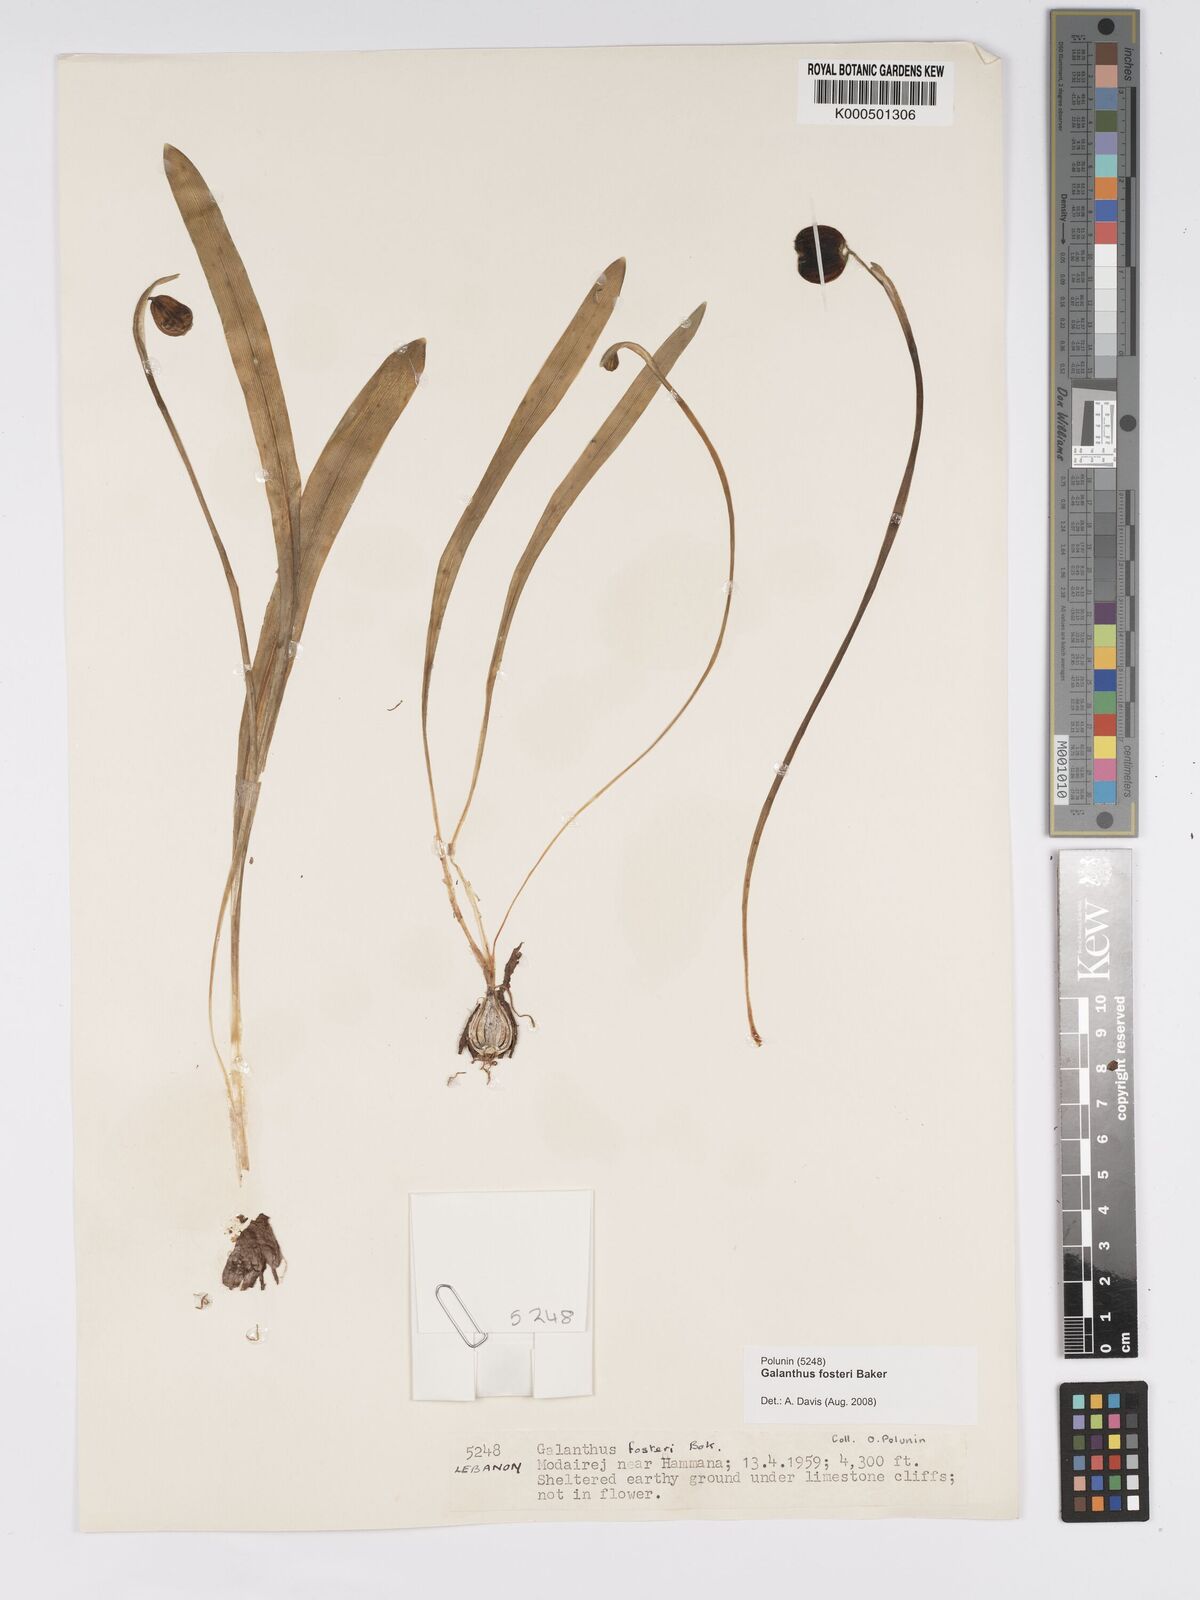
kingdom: Plantae
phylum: Tracheophyta
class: Liliopsida
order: Asparagales
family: Amaryllidaceae
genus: Galanthus
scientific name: Galanthus fosteri
